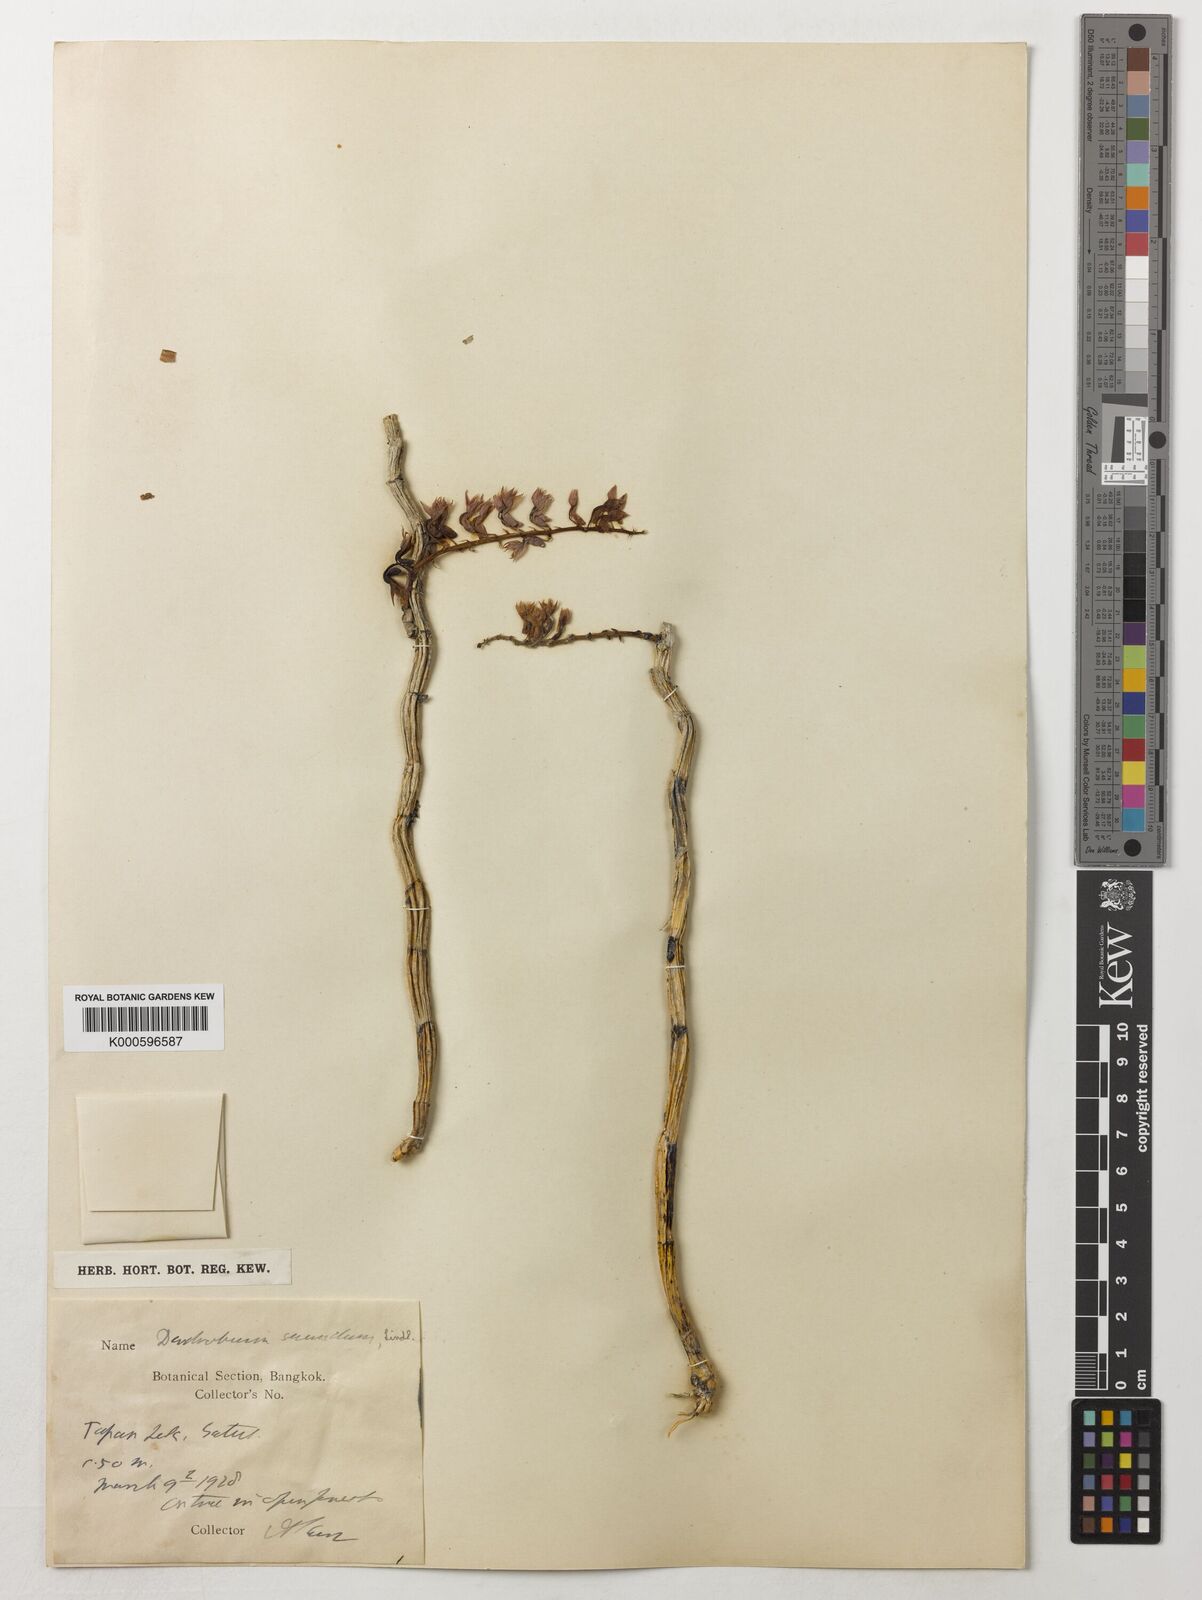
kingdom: Plantae
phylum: Tracheophyta
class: Liliopsida
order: Asparagales
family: Orchidaceae
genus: Dendrobium
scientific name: Dendrobium
